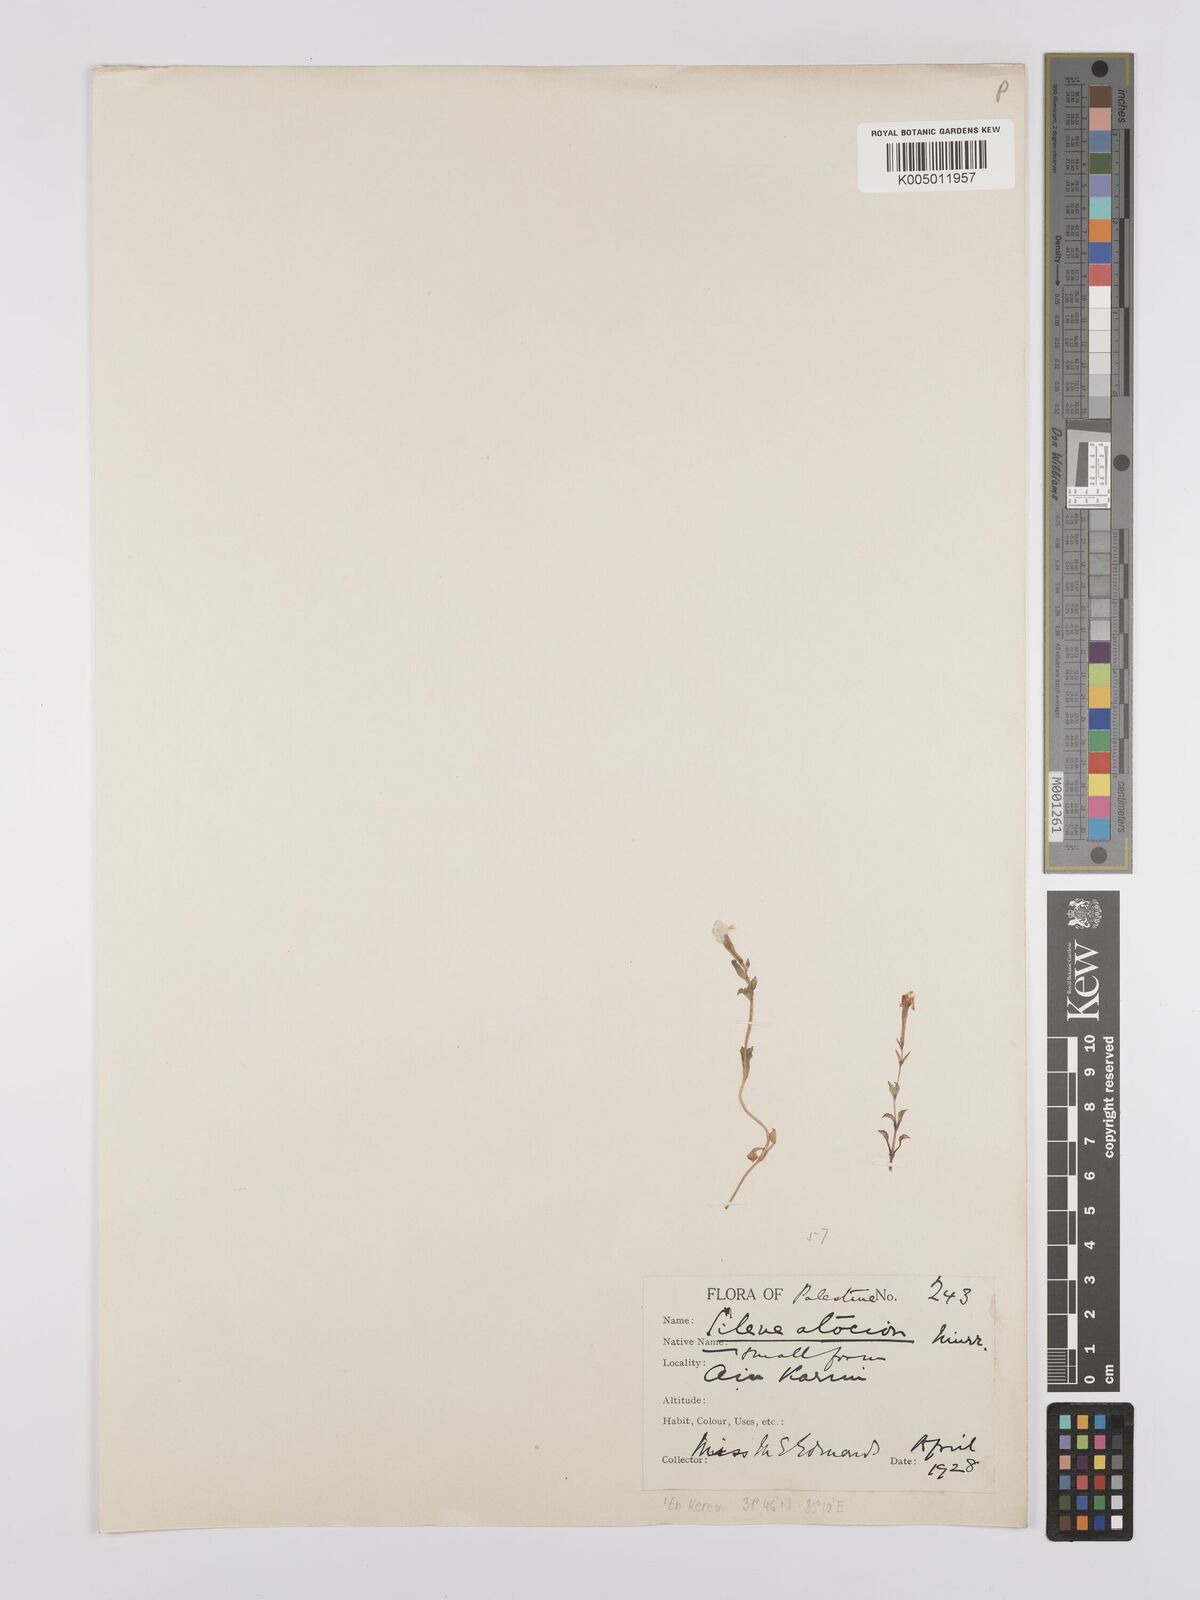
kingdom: Plantae
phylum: Tracheophyta
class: Magnoliopsida
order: Caryophyllales
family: Caryophyllaceae
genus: Silene
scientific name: Silene aegyptiaca
